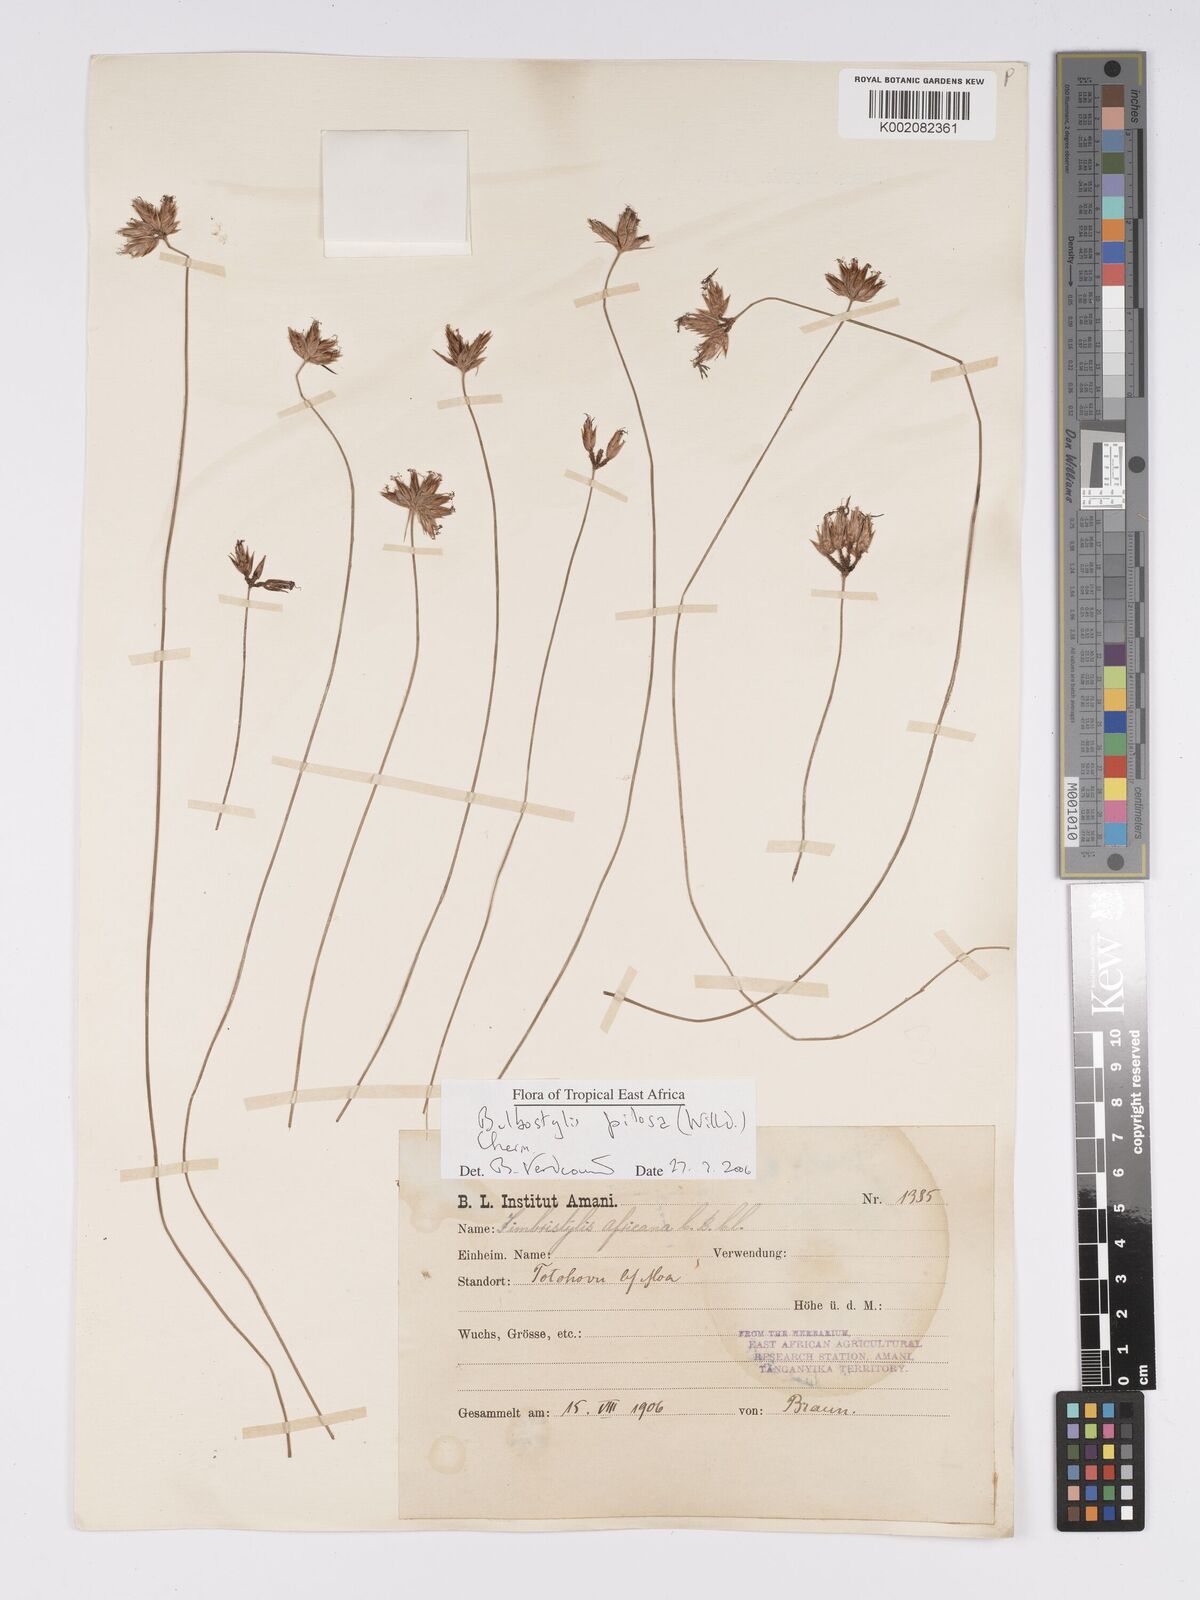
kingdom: Plantae
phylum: Tracheophyta
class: Liliopsida
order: Poales
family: Cyperaceae
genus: Bulbostylis
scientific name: Bulbostylis pilosa
